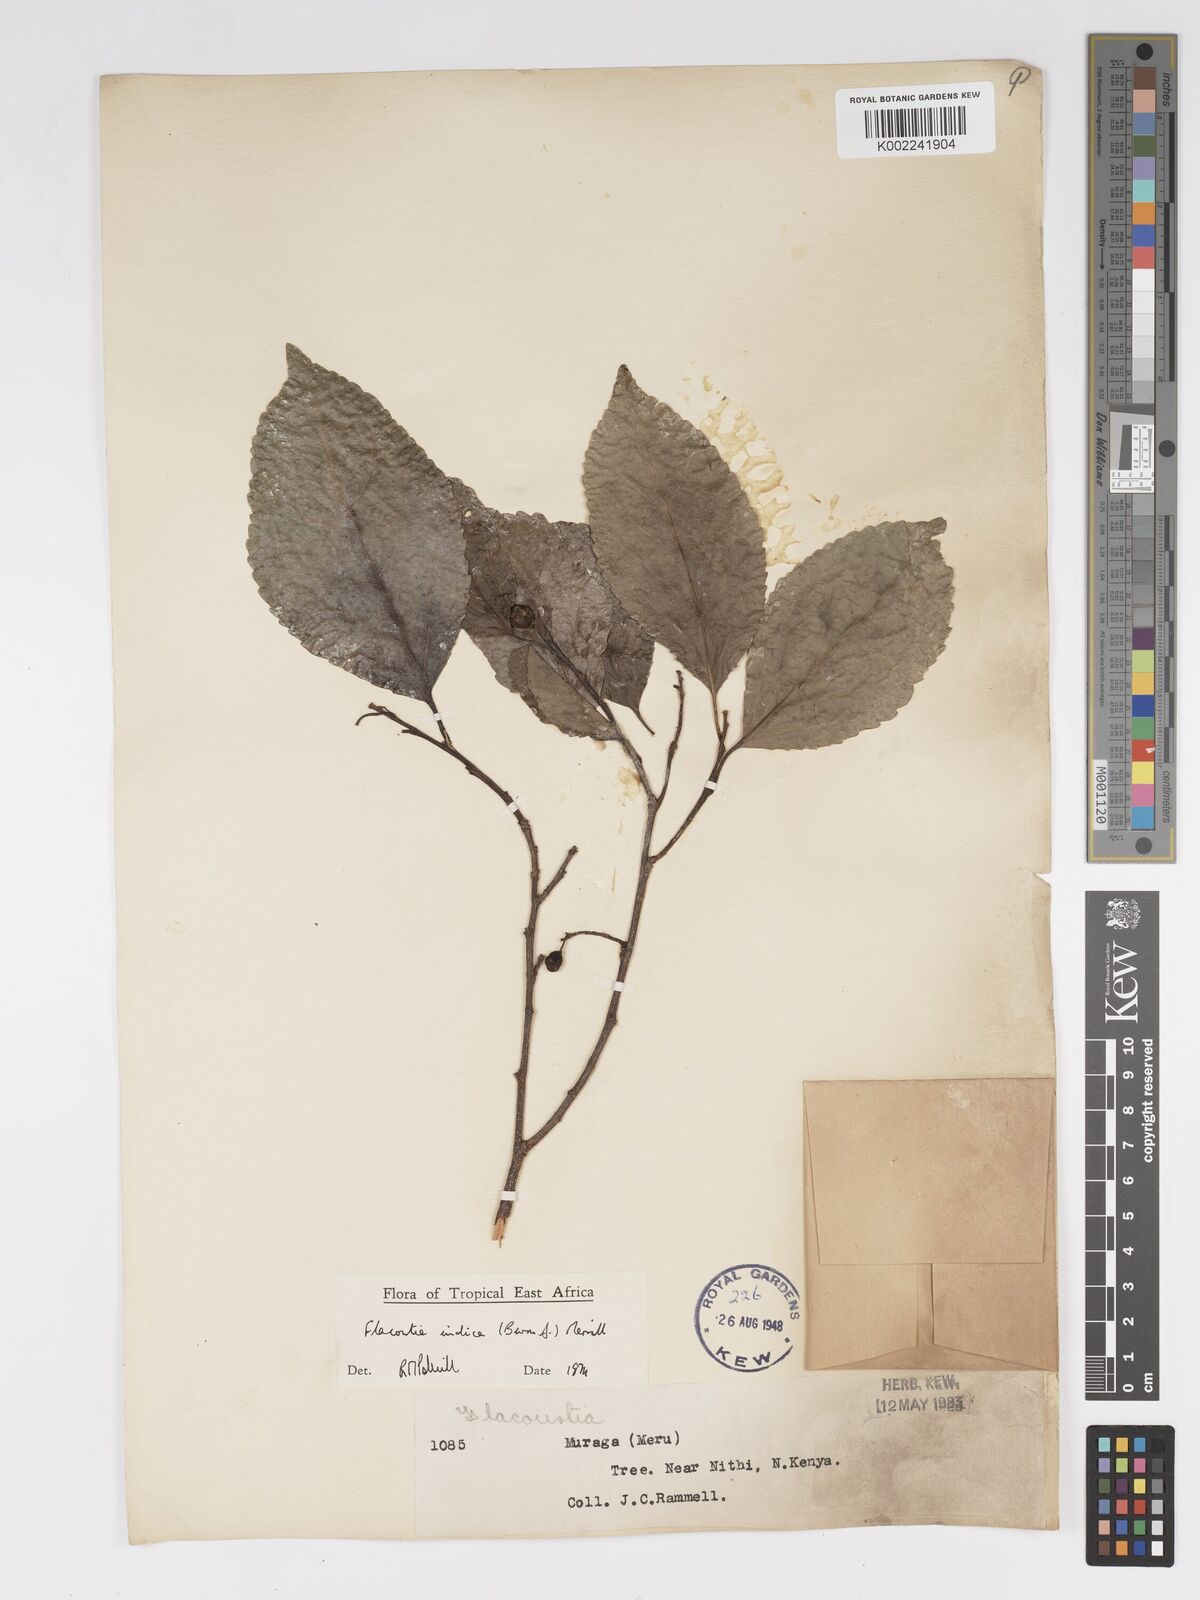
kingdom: Plantae
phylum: Tracheophyta
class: Magnoliopsida
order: Malpighiales
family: Salicaceae
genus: Flacourtia
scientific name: Flacourtia indica
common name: Governor's plum
